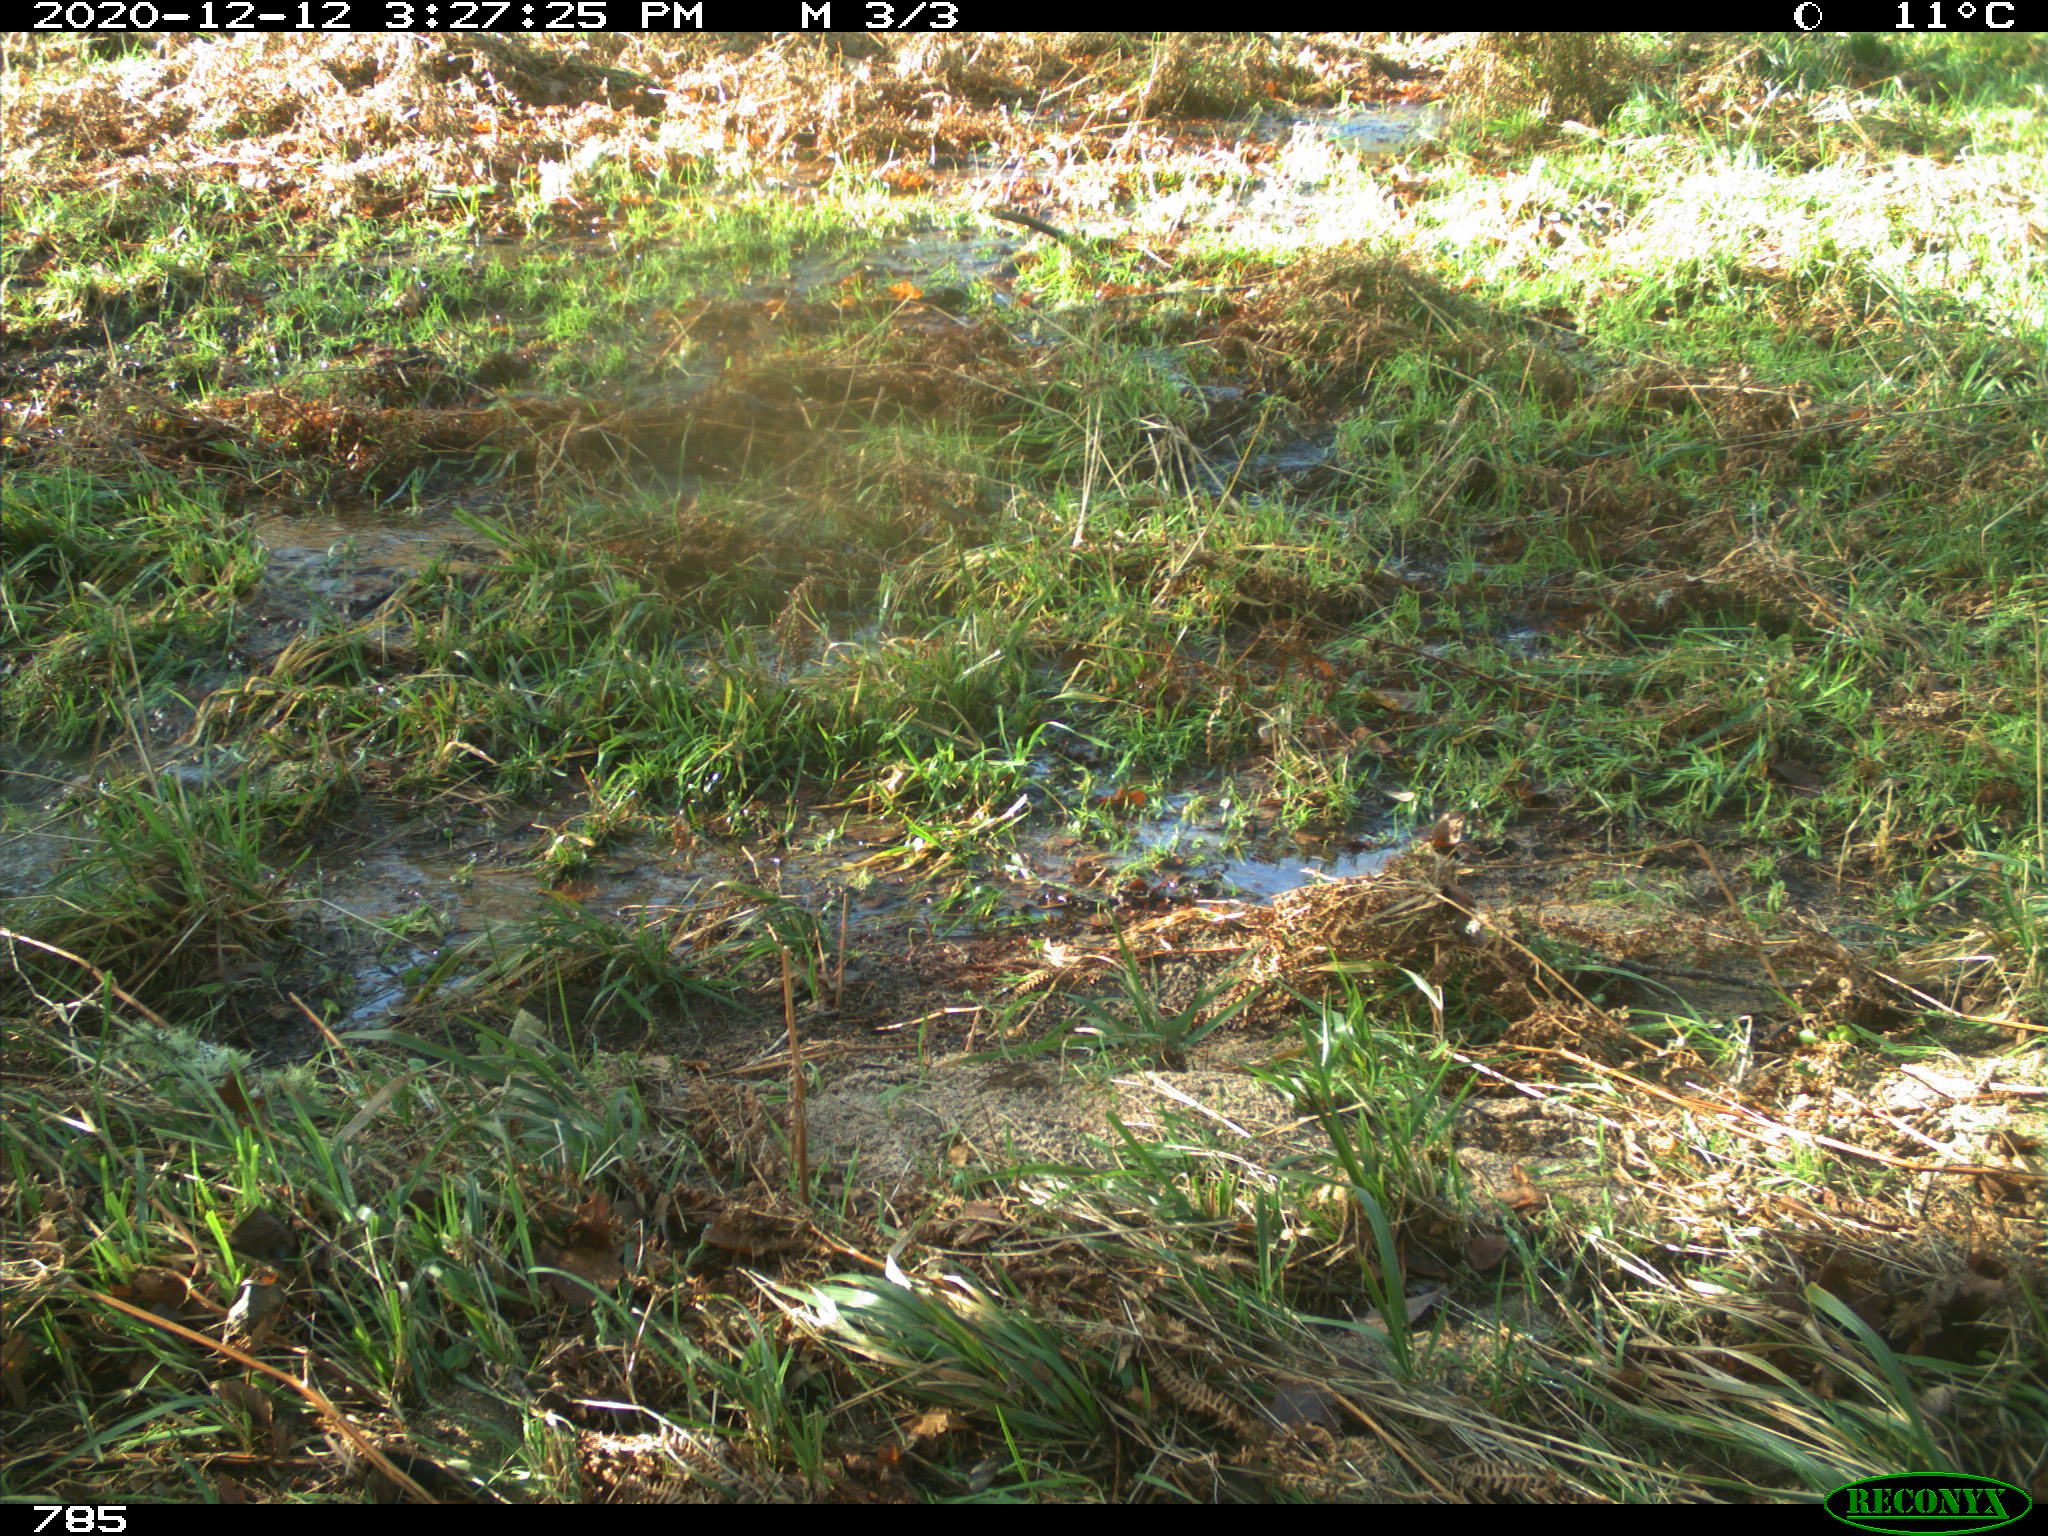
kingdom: Animalia
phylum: Chordata
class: Mammalia
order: Artiodactyla
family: Bovidae
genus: Bos
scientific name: Bos taurus
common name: Domesticated cattle
